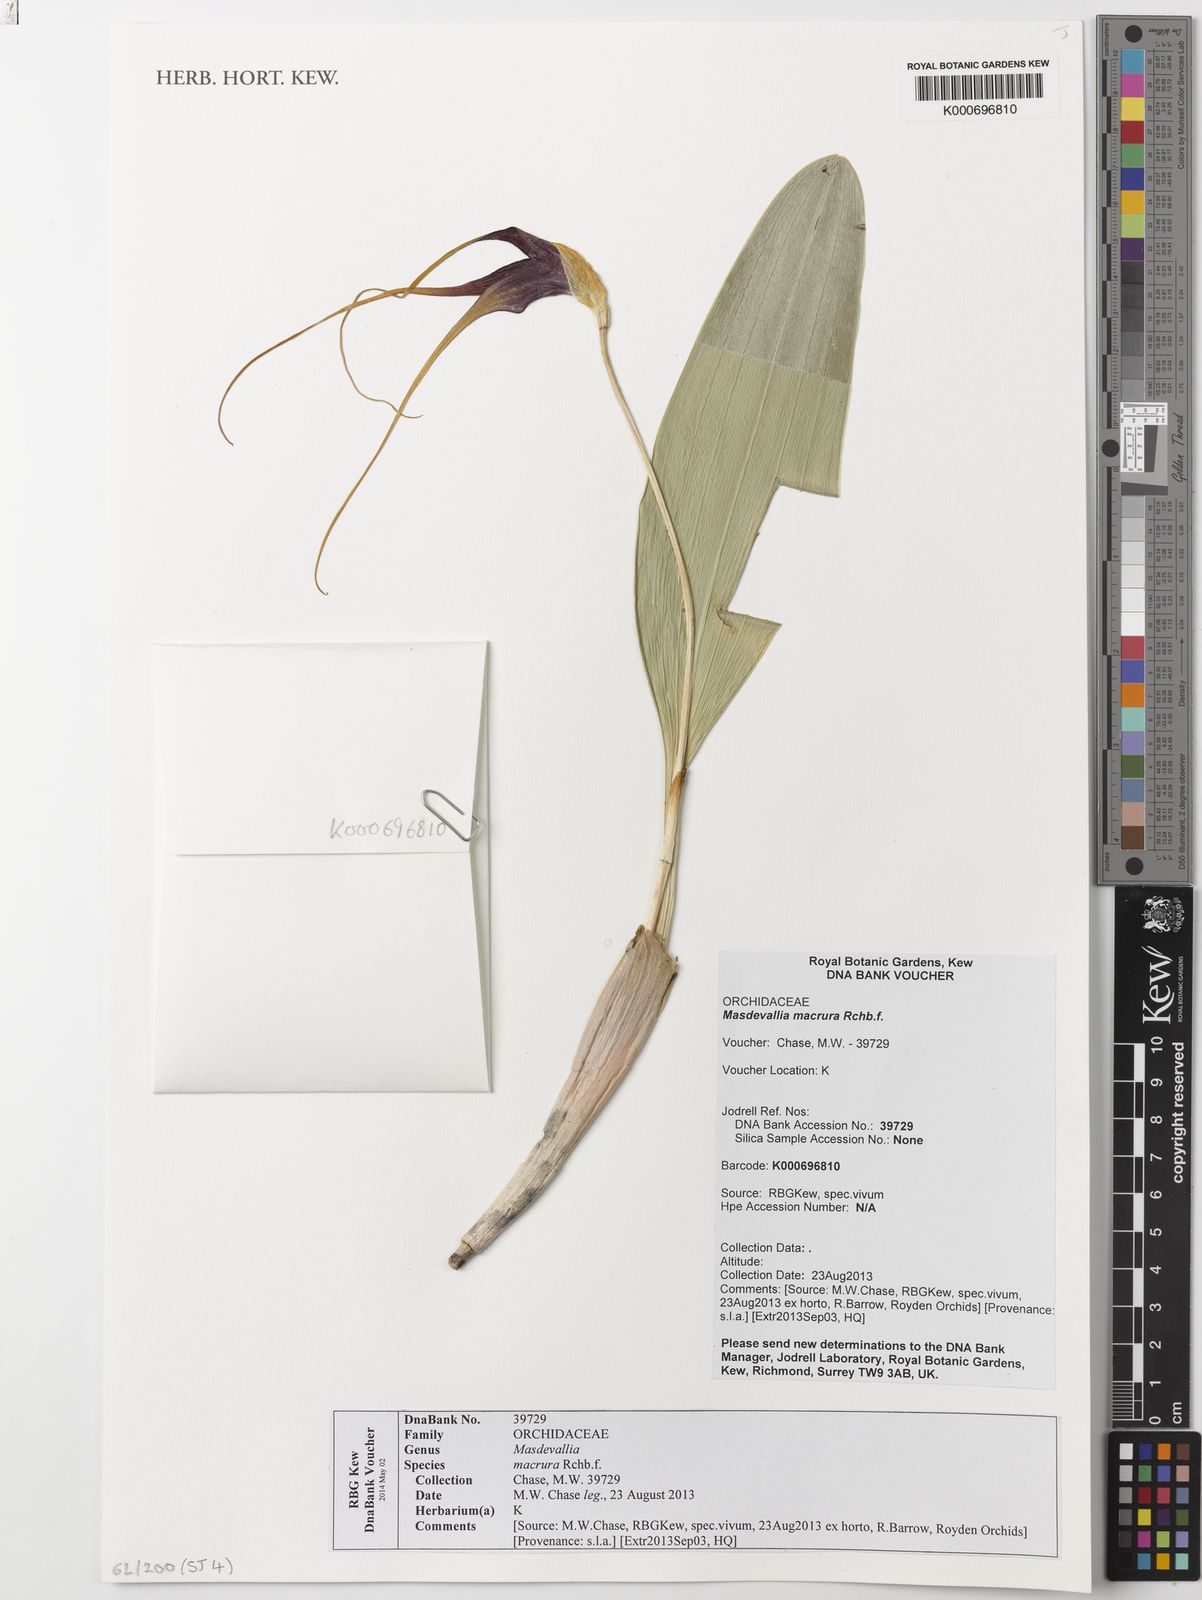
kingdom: Plantae
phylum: Tracheophyta
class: Liliopsida
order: Asparagales
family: Orchidaceae
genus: Masdevallia
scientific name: Masdevallia macrura
